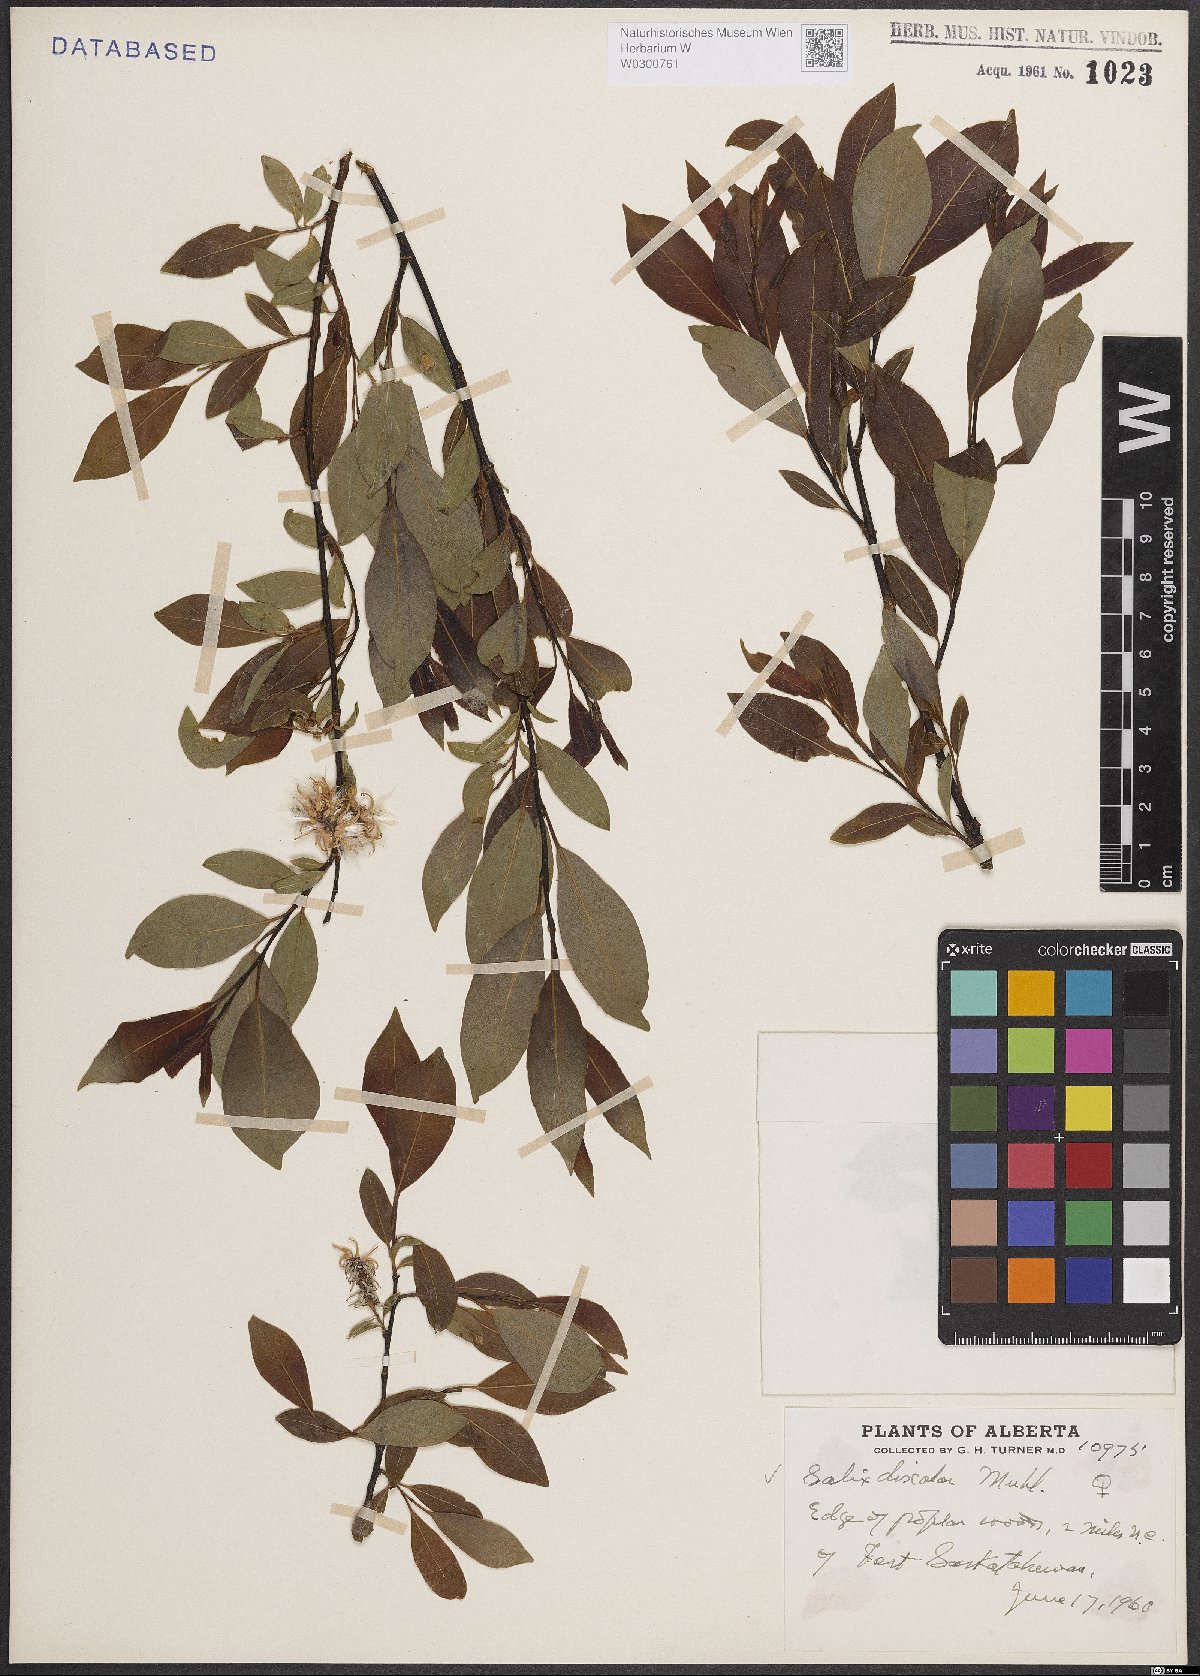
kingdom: Plantae
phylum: Tracheophyta
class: Magnoliopsida
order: Malpighiales
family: Salicaceae
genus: Salix
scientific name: Salix discolor
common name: Glaucous willow
